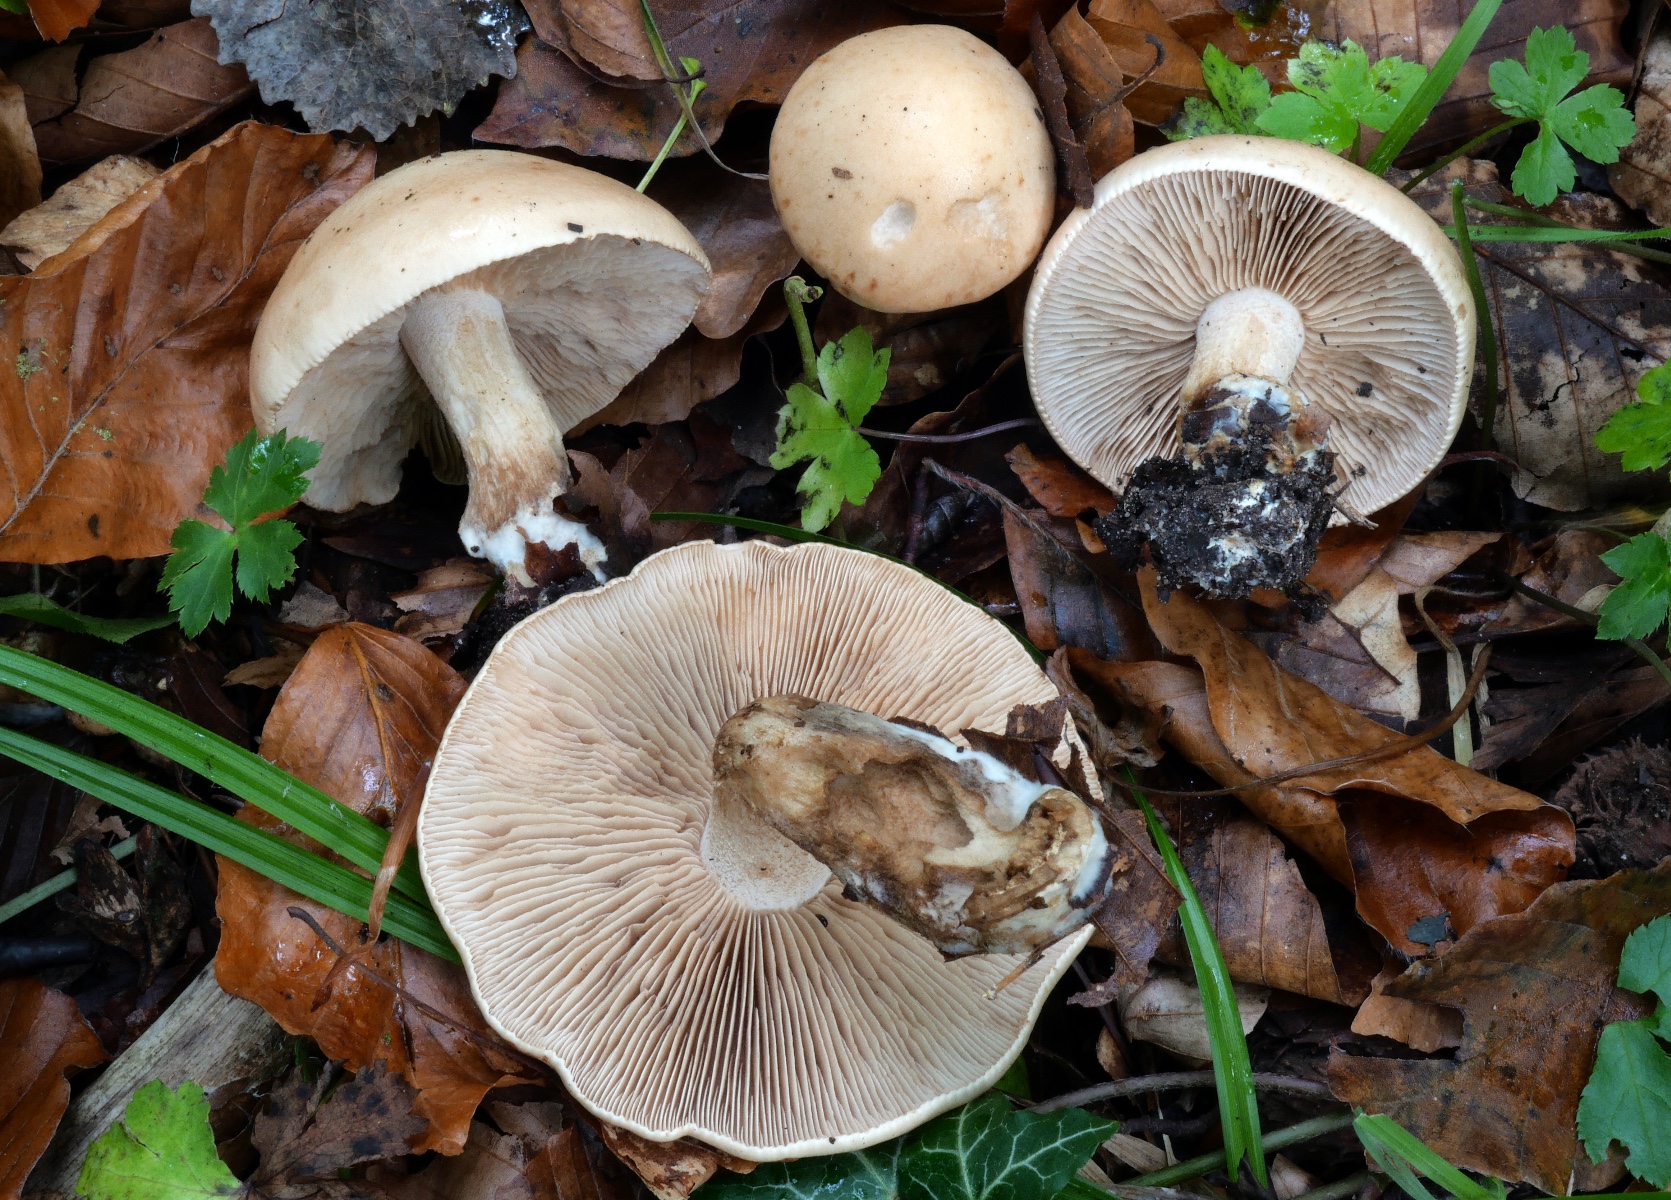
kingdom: Fungi
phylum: Basidiomycota
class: Agaricomycetes
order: Agaricales
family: Hymenogastraceae
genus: Hebeloma
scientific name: Hebeloma laterinum
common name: kakao-tåreblad
